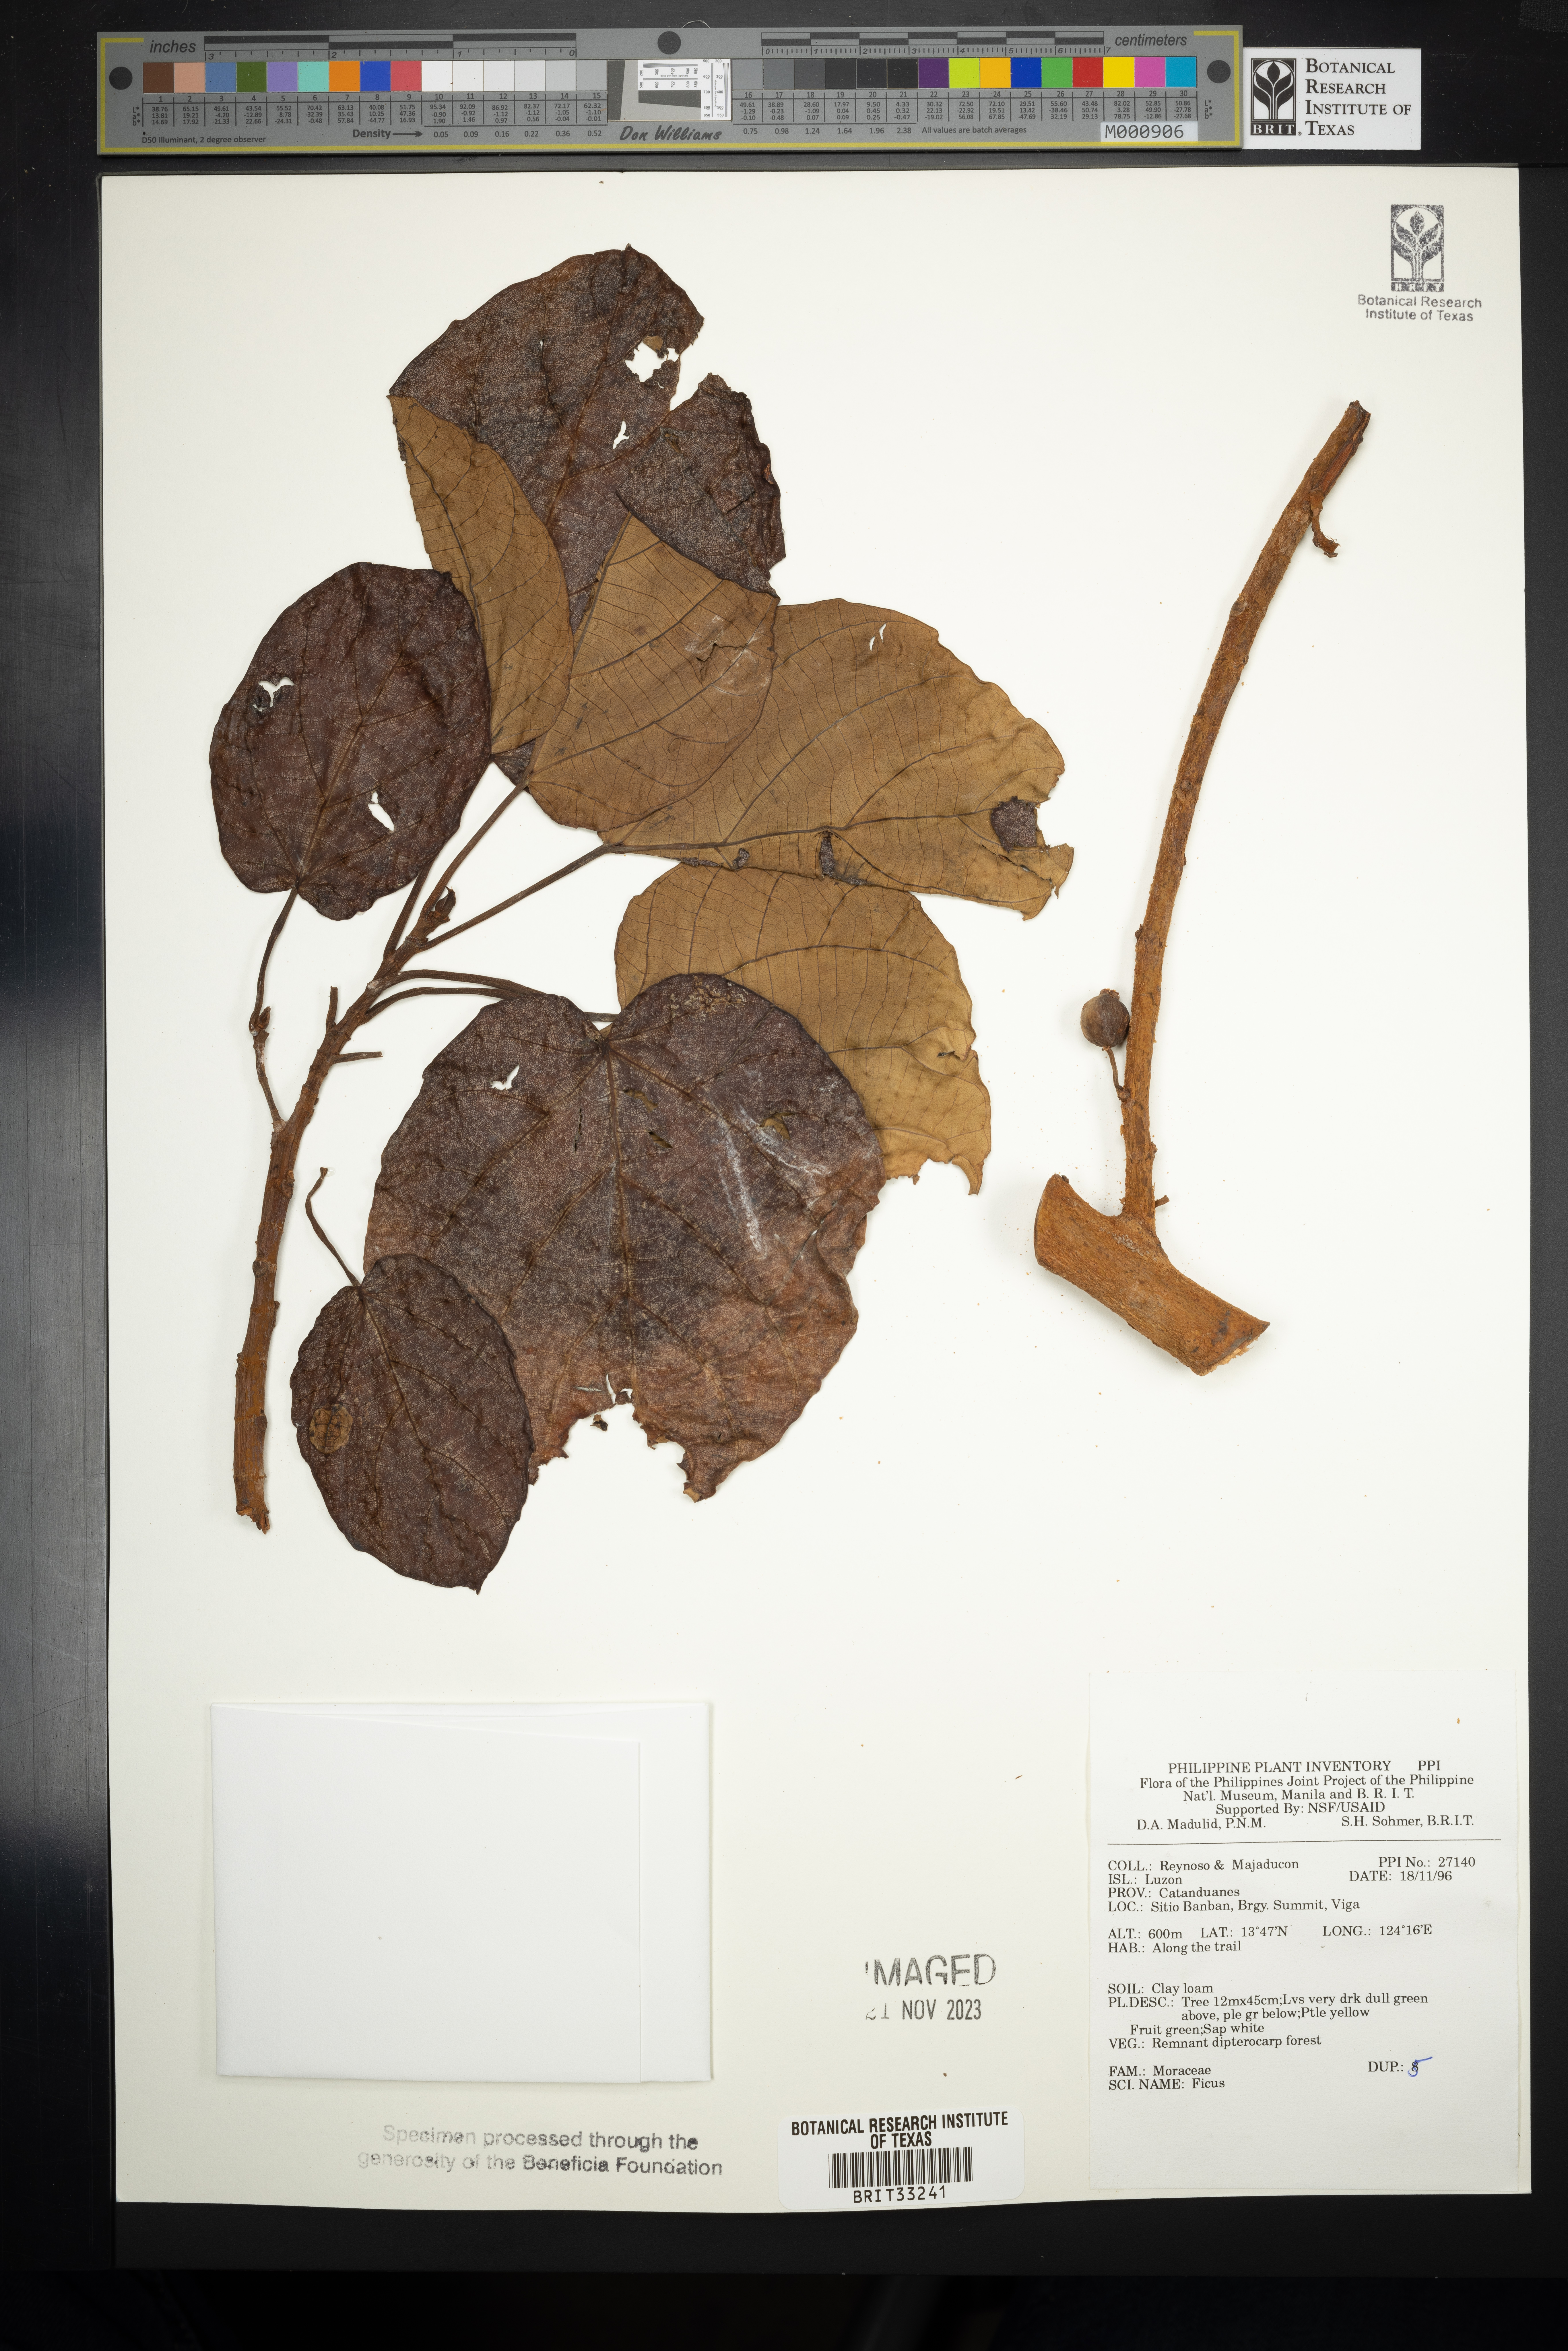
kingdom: Plantae
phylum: Tracheophyta
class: Magnoliopsida
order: Rosales
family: Moraceae
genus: Ficus
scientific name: Ficus
